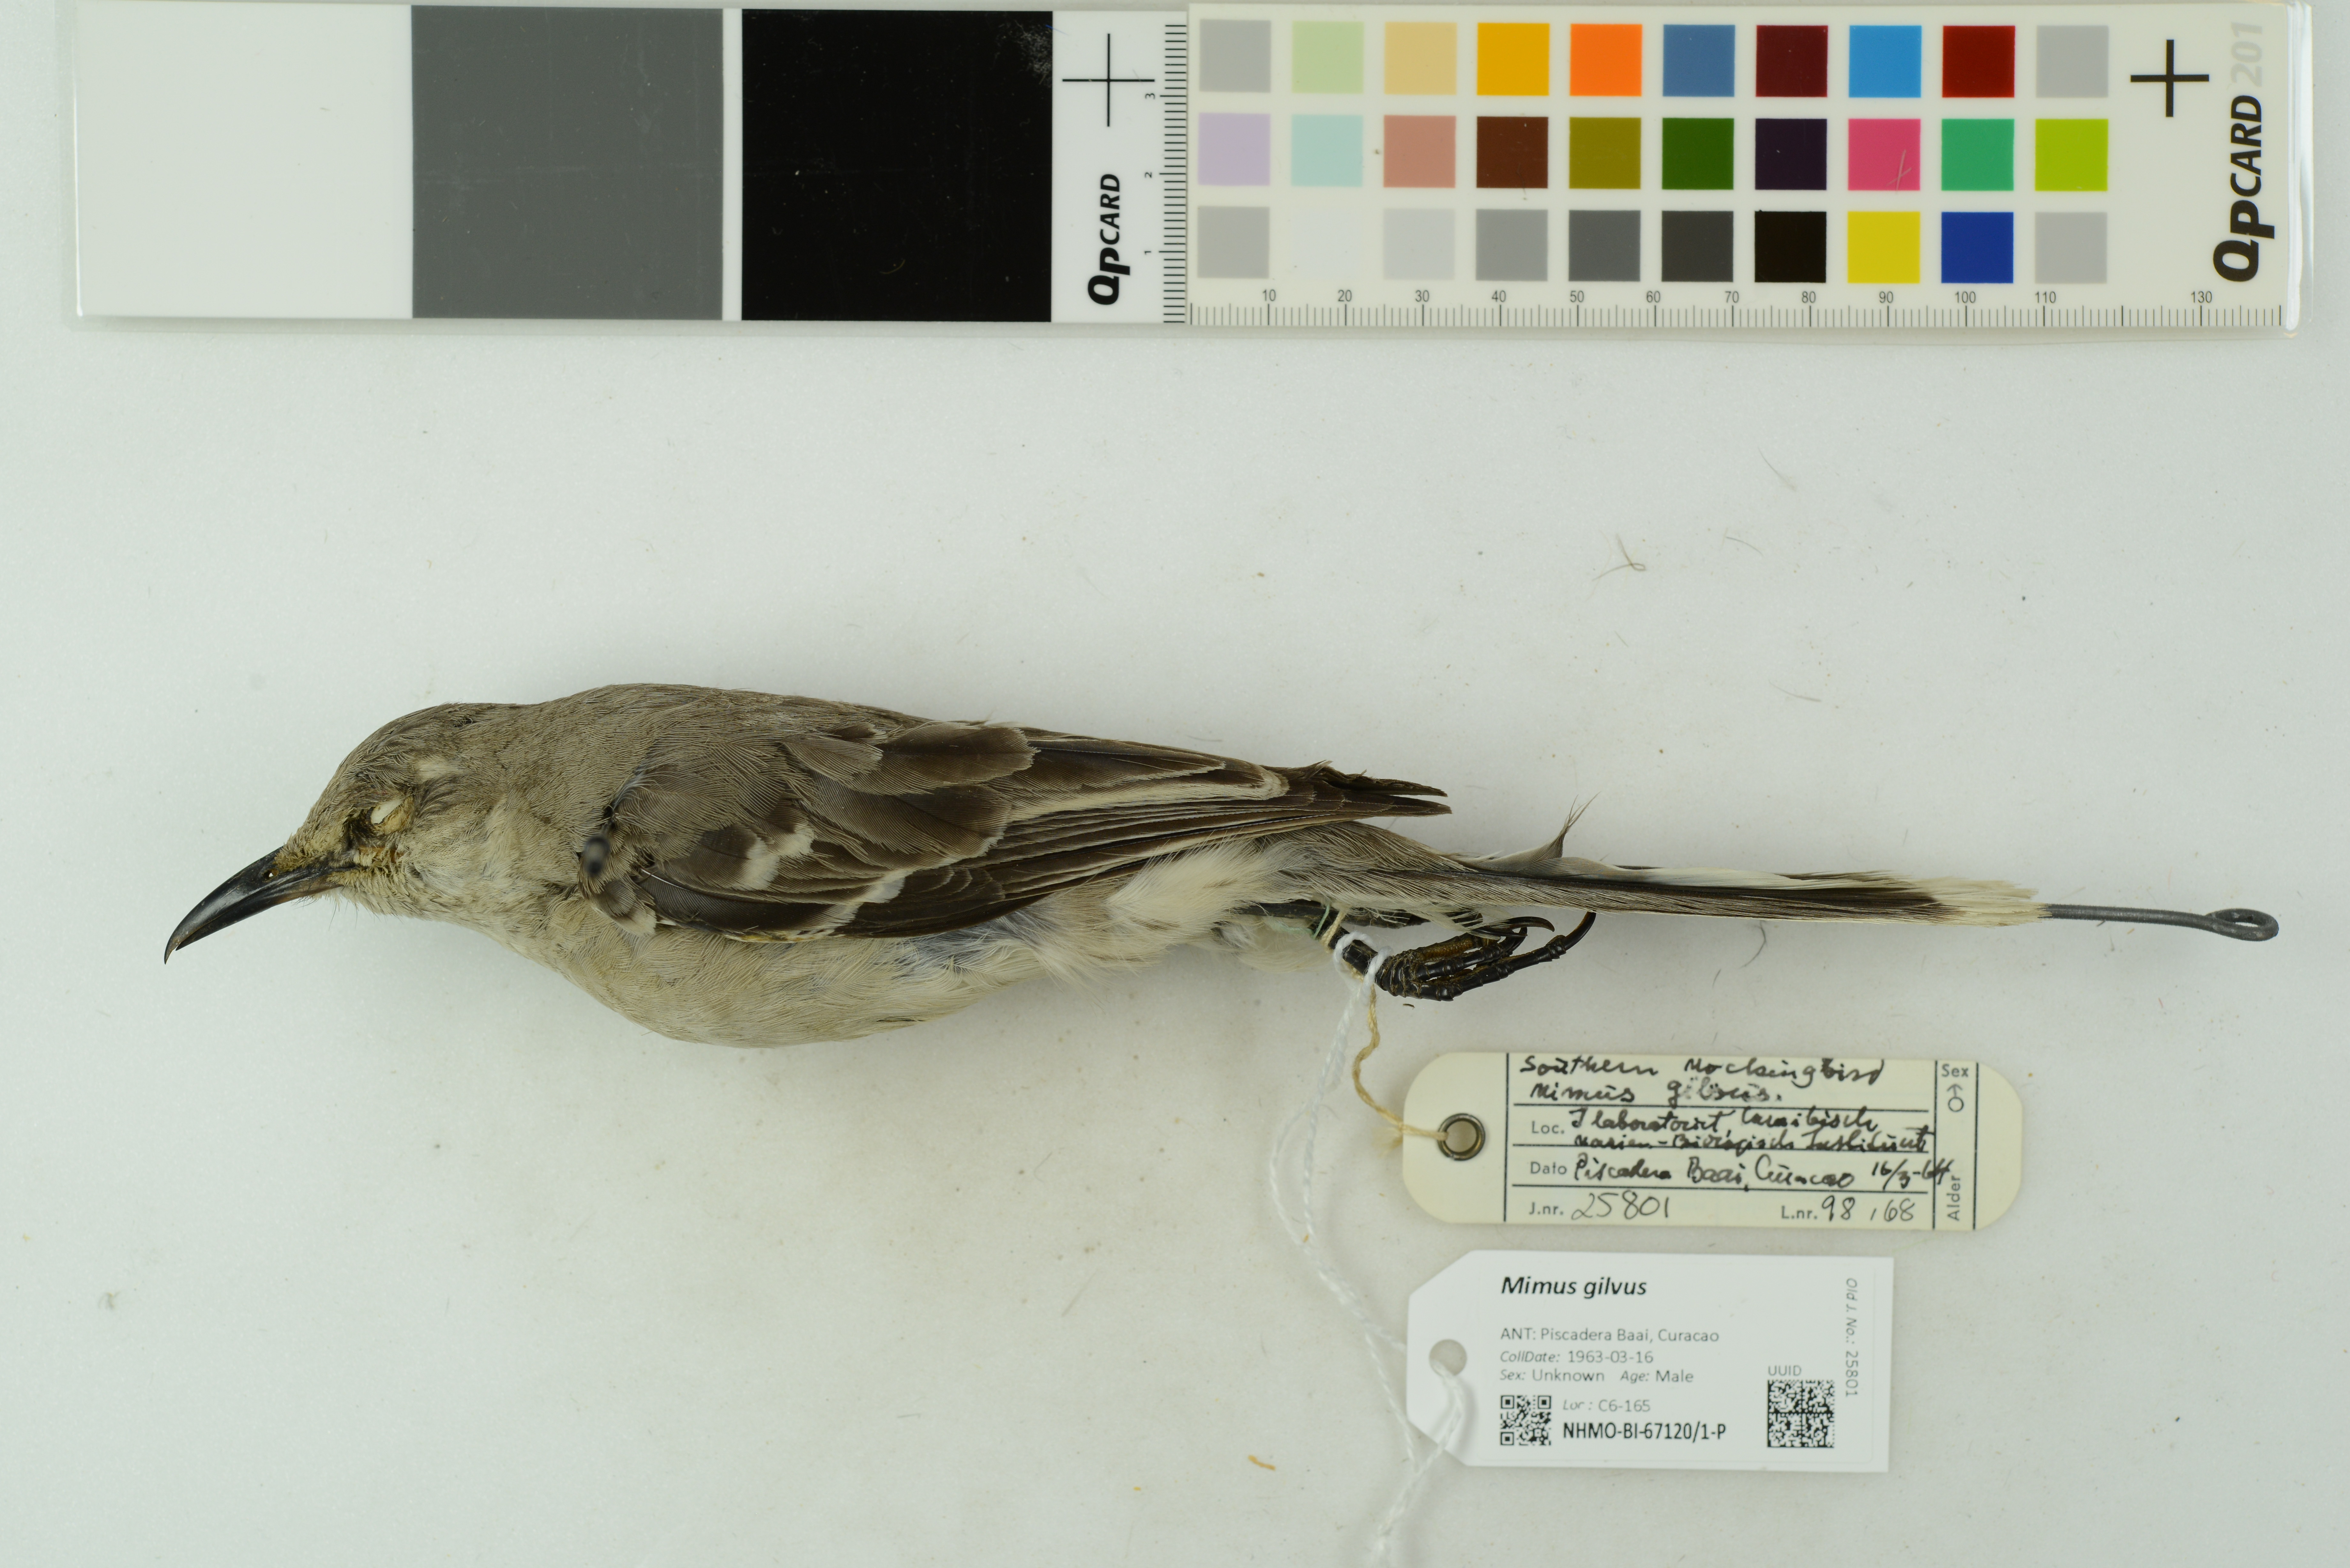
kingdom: Animalia
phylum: Chordata
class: Aves
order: Passeriformes
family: Mimidae
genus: Mimus
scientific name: Mimus gilvus
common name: Tropical mockingbird
